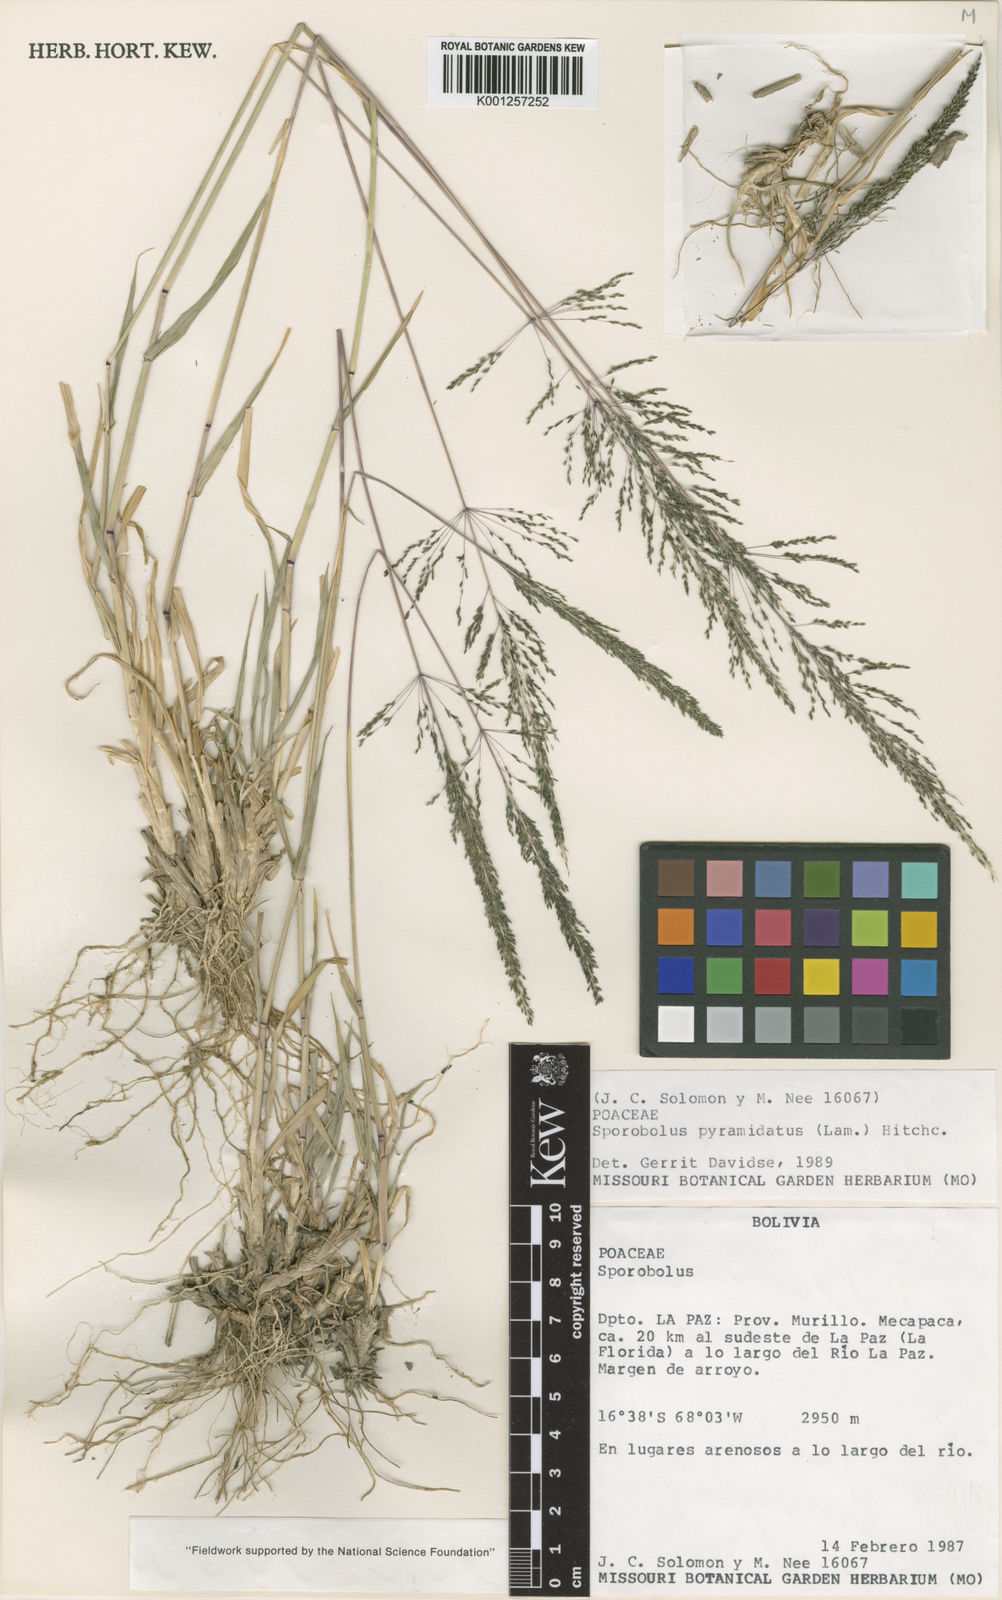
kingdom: Plantae
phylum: Tracheophyta
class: Liliopsida
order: Poales
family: Poaceae
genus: Sporobolus
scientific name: Sporobolus pyramidatus
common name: Whorled dropseed
